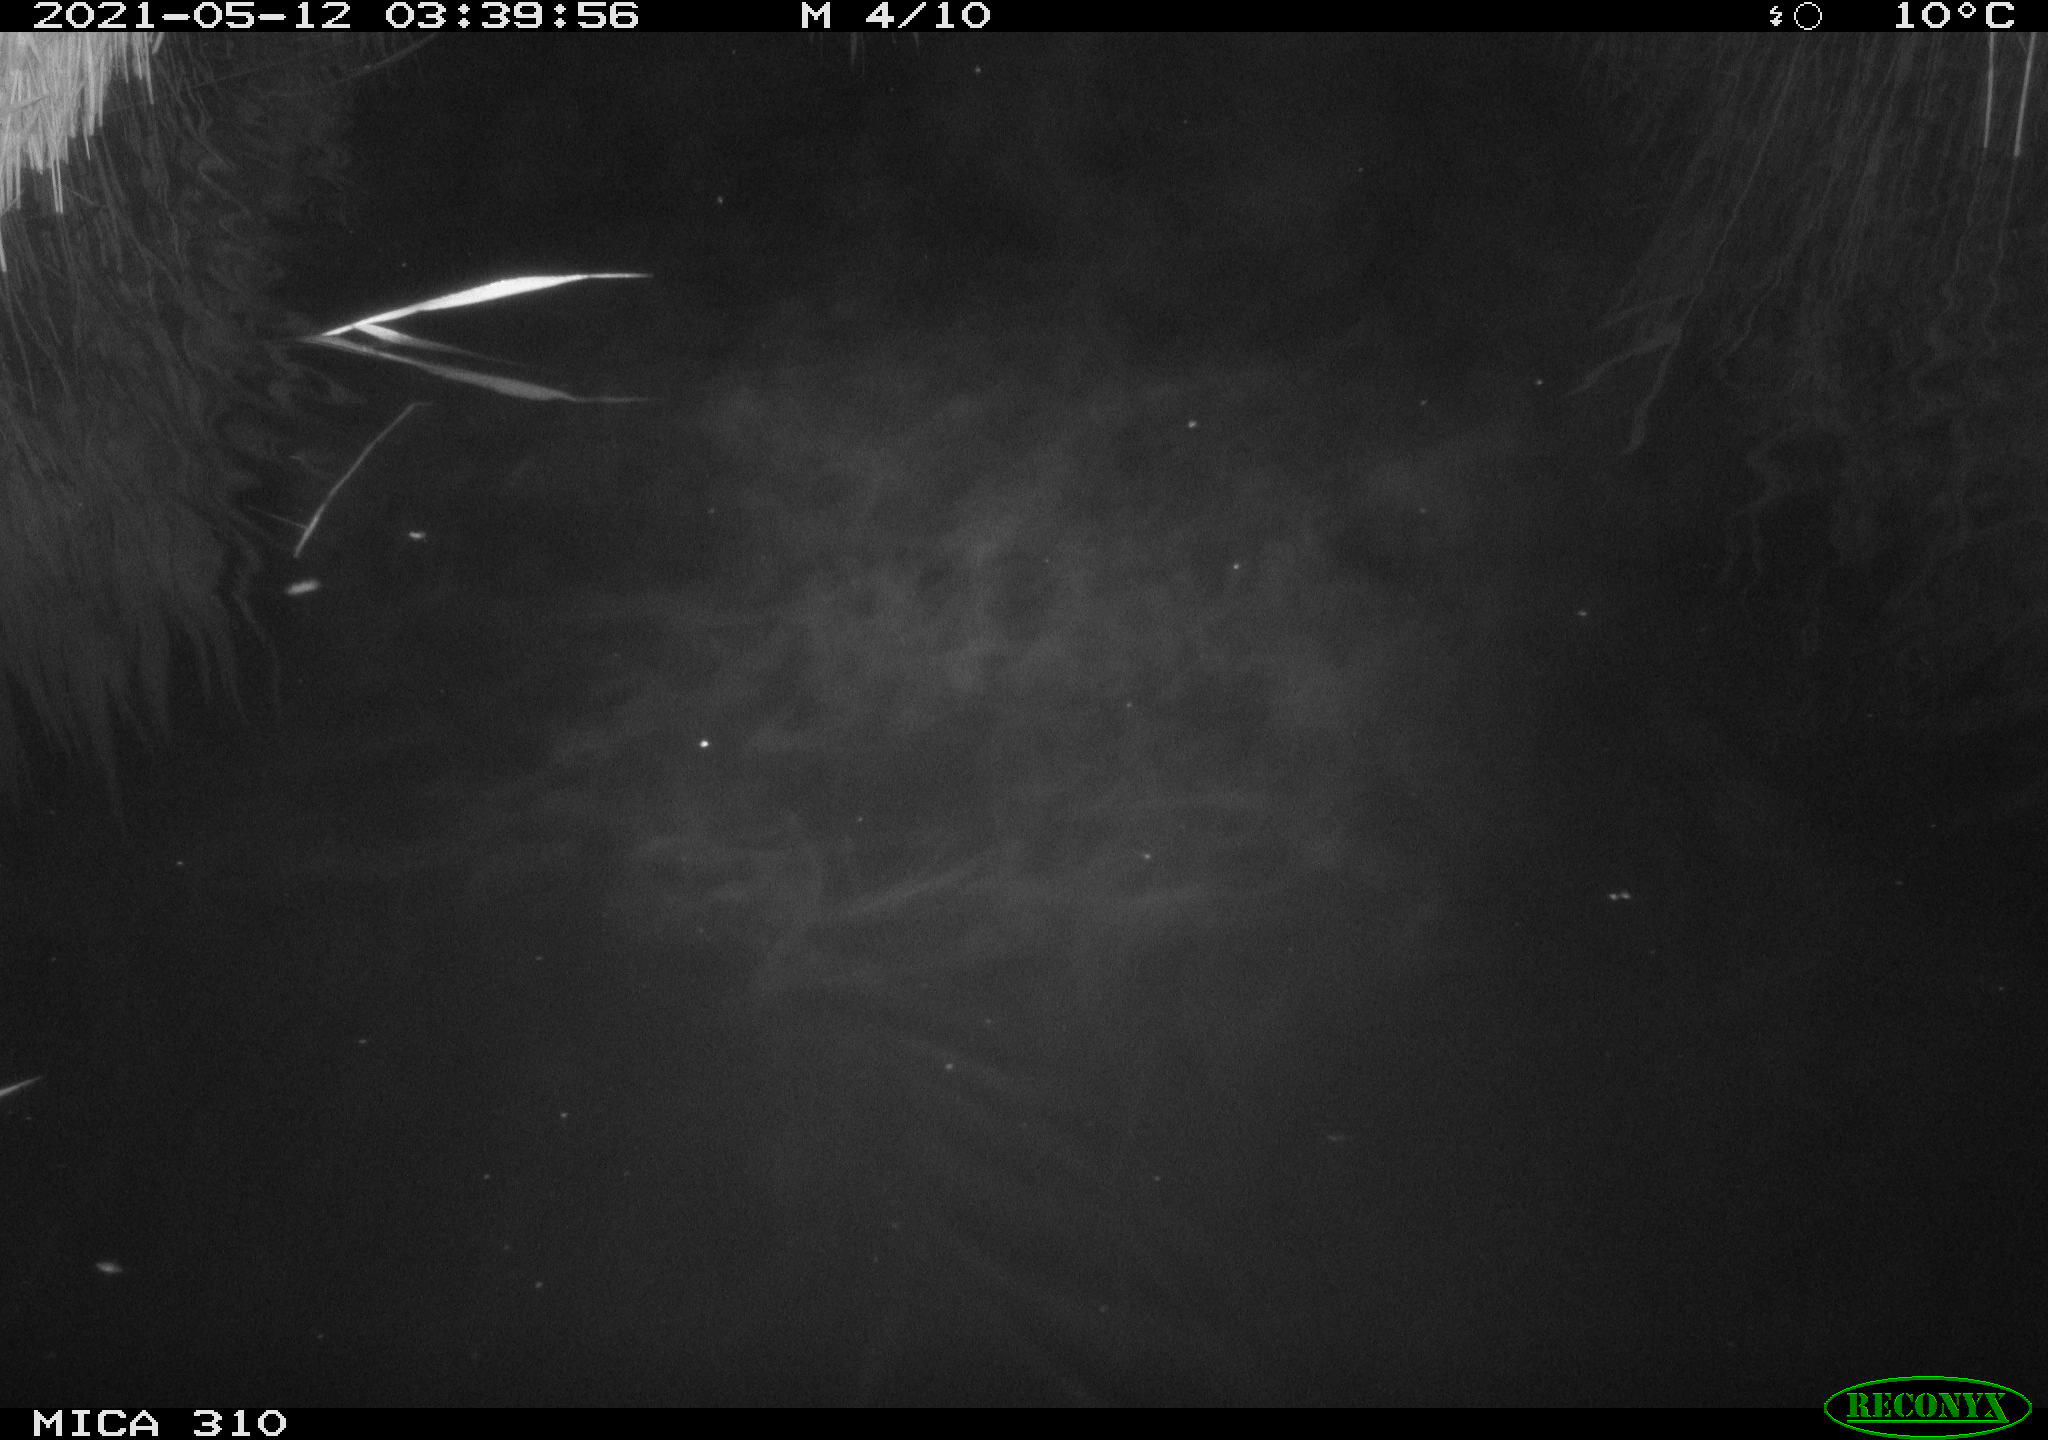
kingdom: Animalia
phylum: Chordata
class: Aves
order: Anseriformes
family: Anatidae
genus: Anas
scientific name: Anas platyrhynchos
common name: Mallard
